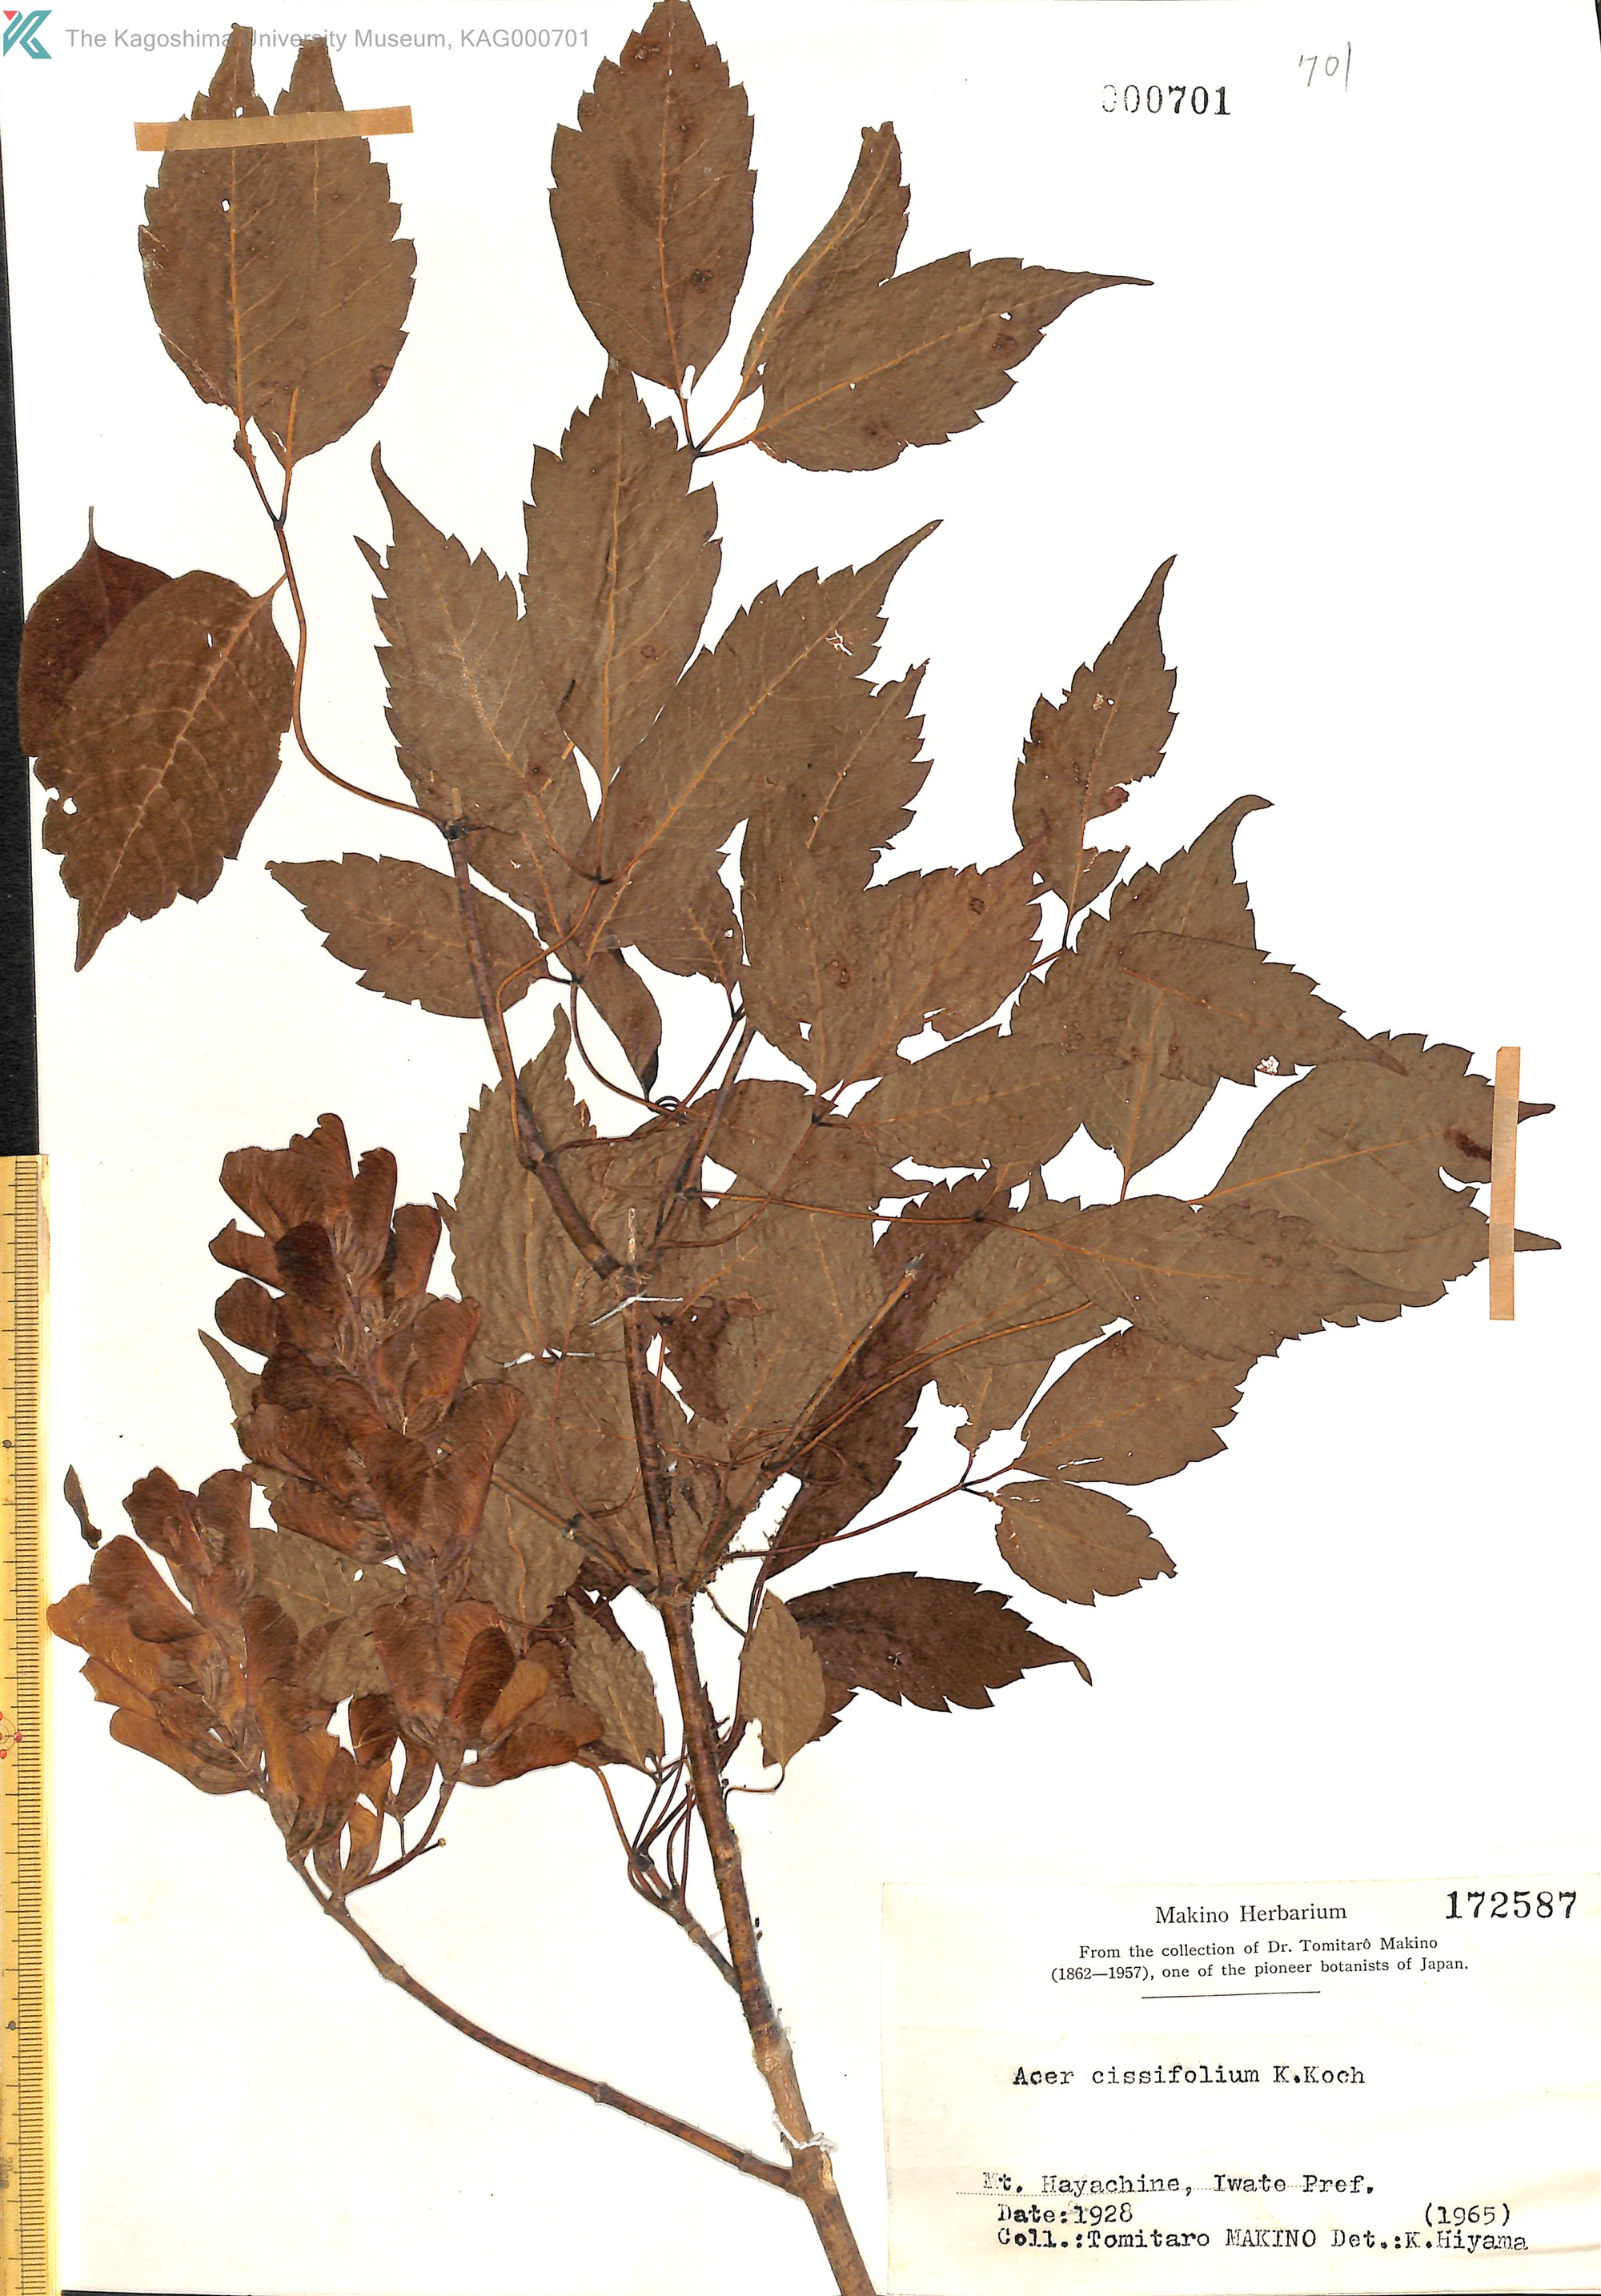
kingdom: Plantae
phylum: Tracheophyta
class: Magnoliopsida
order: Sapindales
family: Sapindaceae
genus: Acer
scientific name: Acer cissifolium
